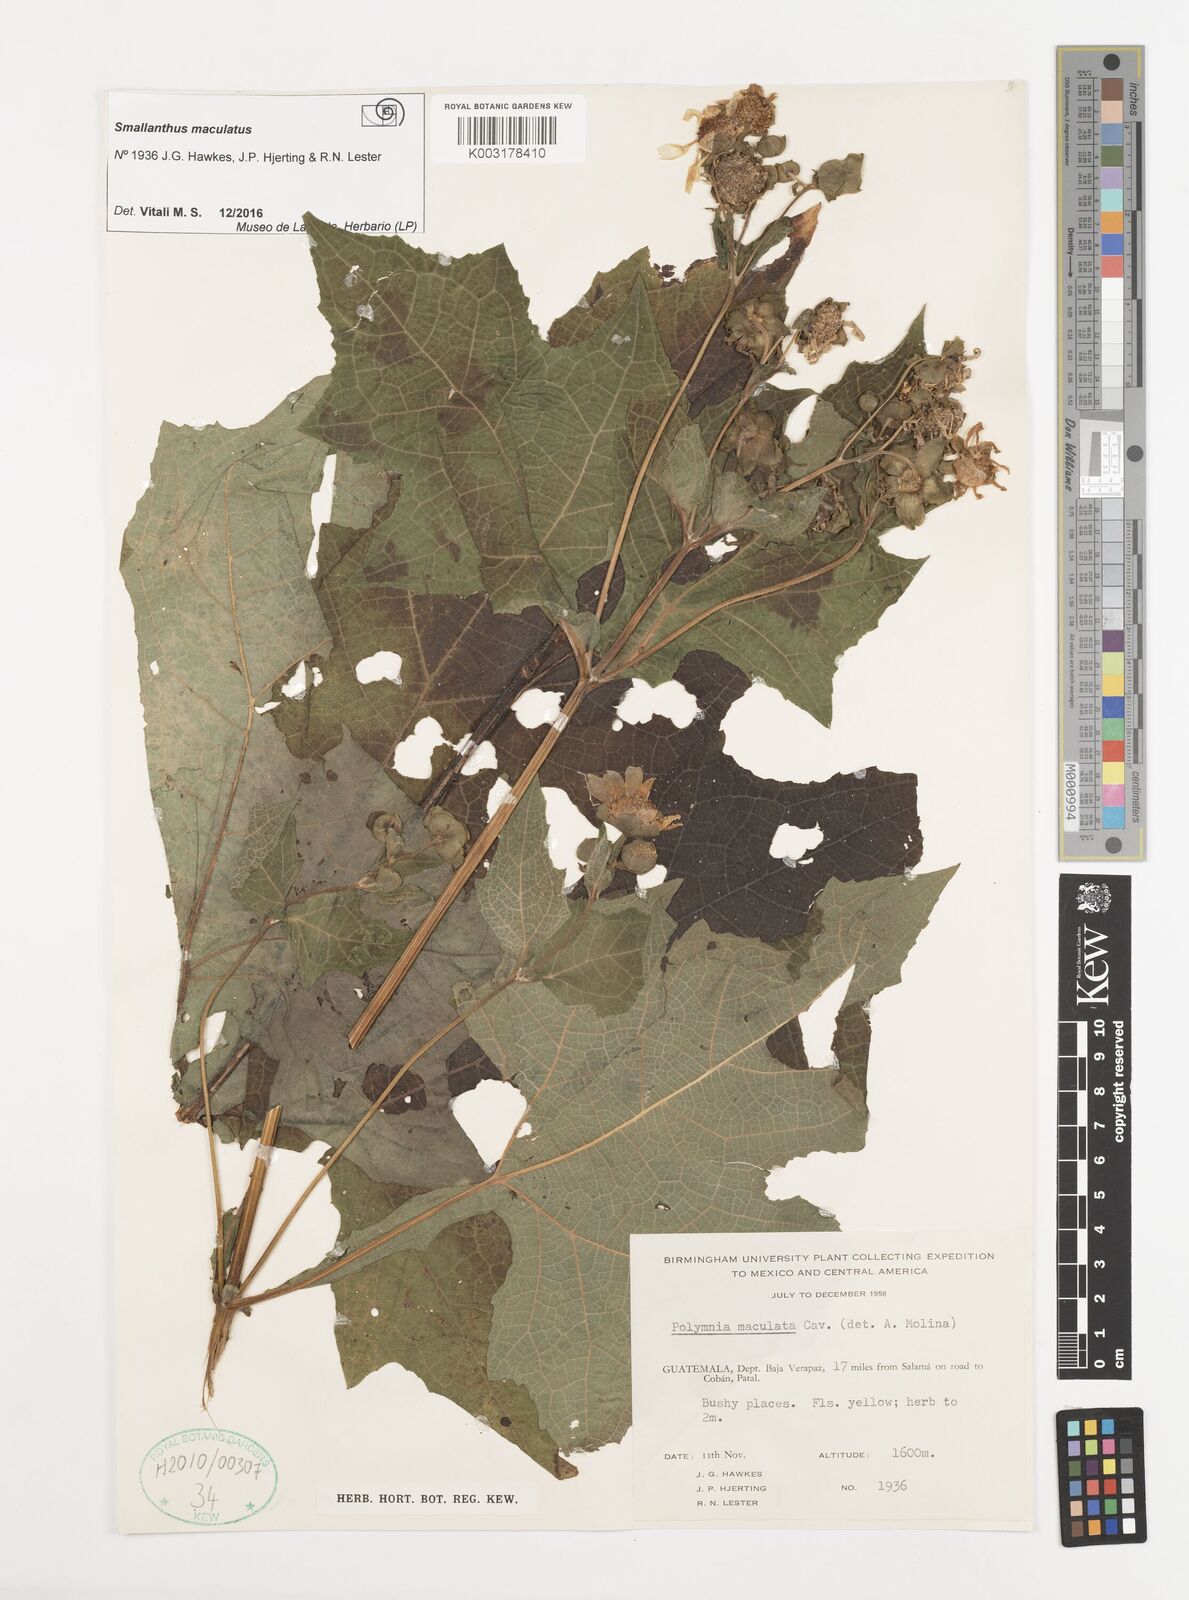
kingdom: Plantae
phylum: Tracheophyta
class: Magnoliopsida
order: Asterales
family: Asteraceae
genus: Smallanthus
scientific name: Smallanthus maculatus
